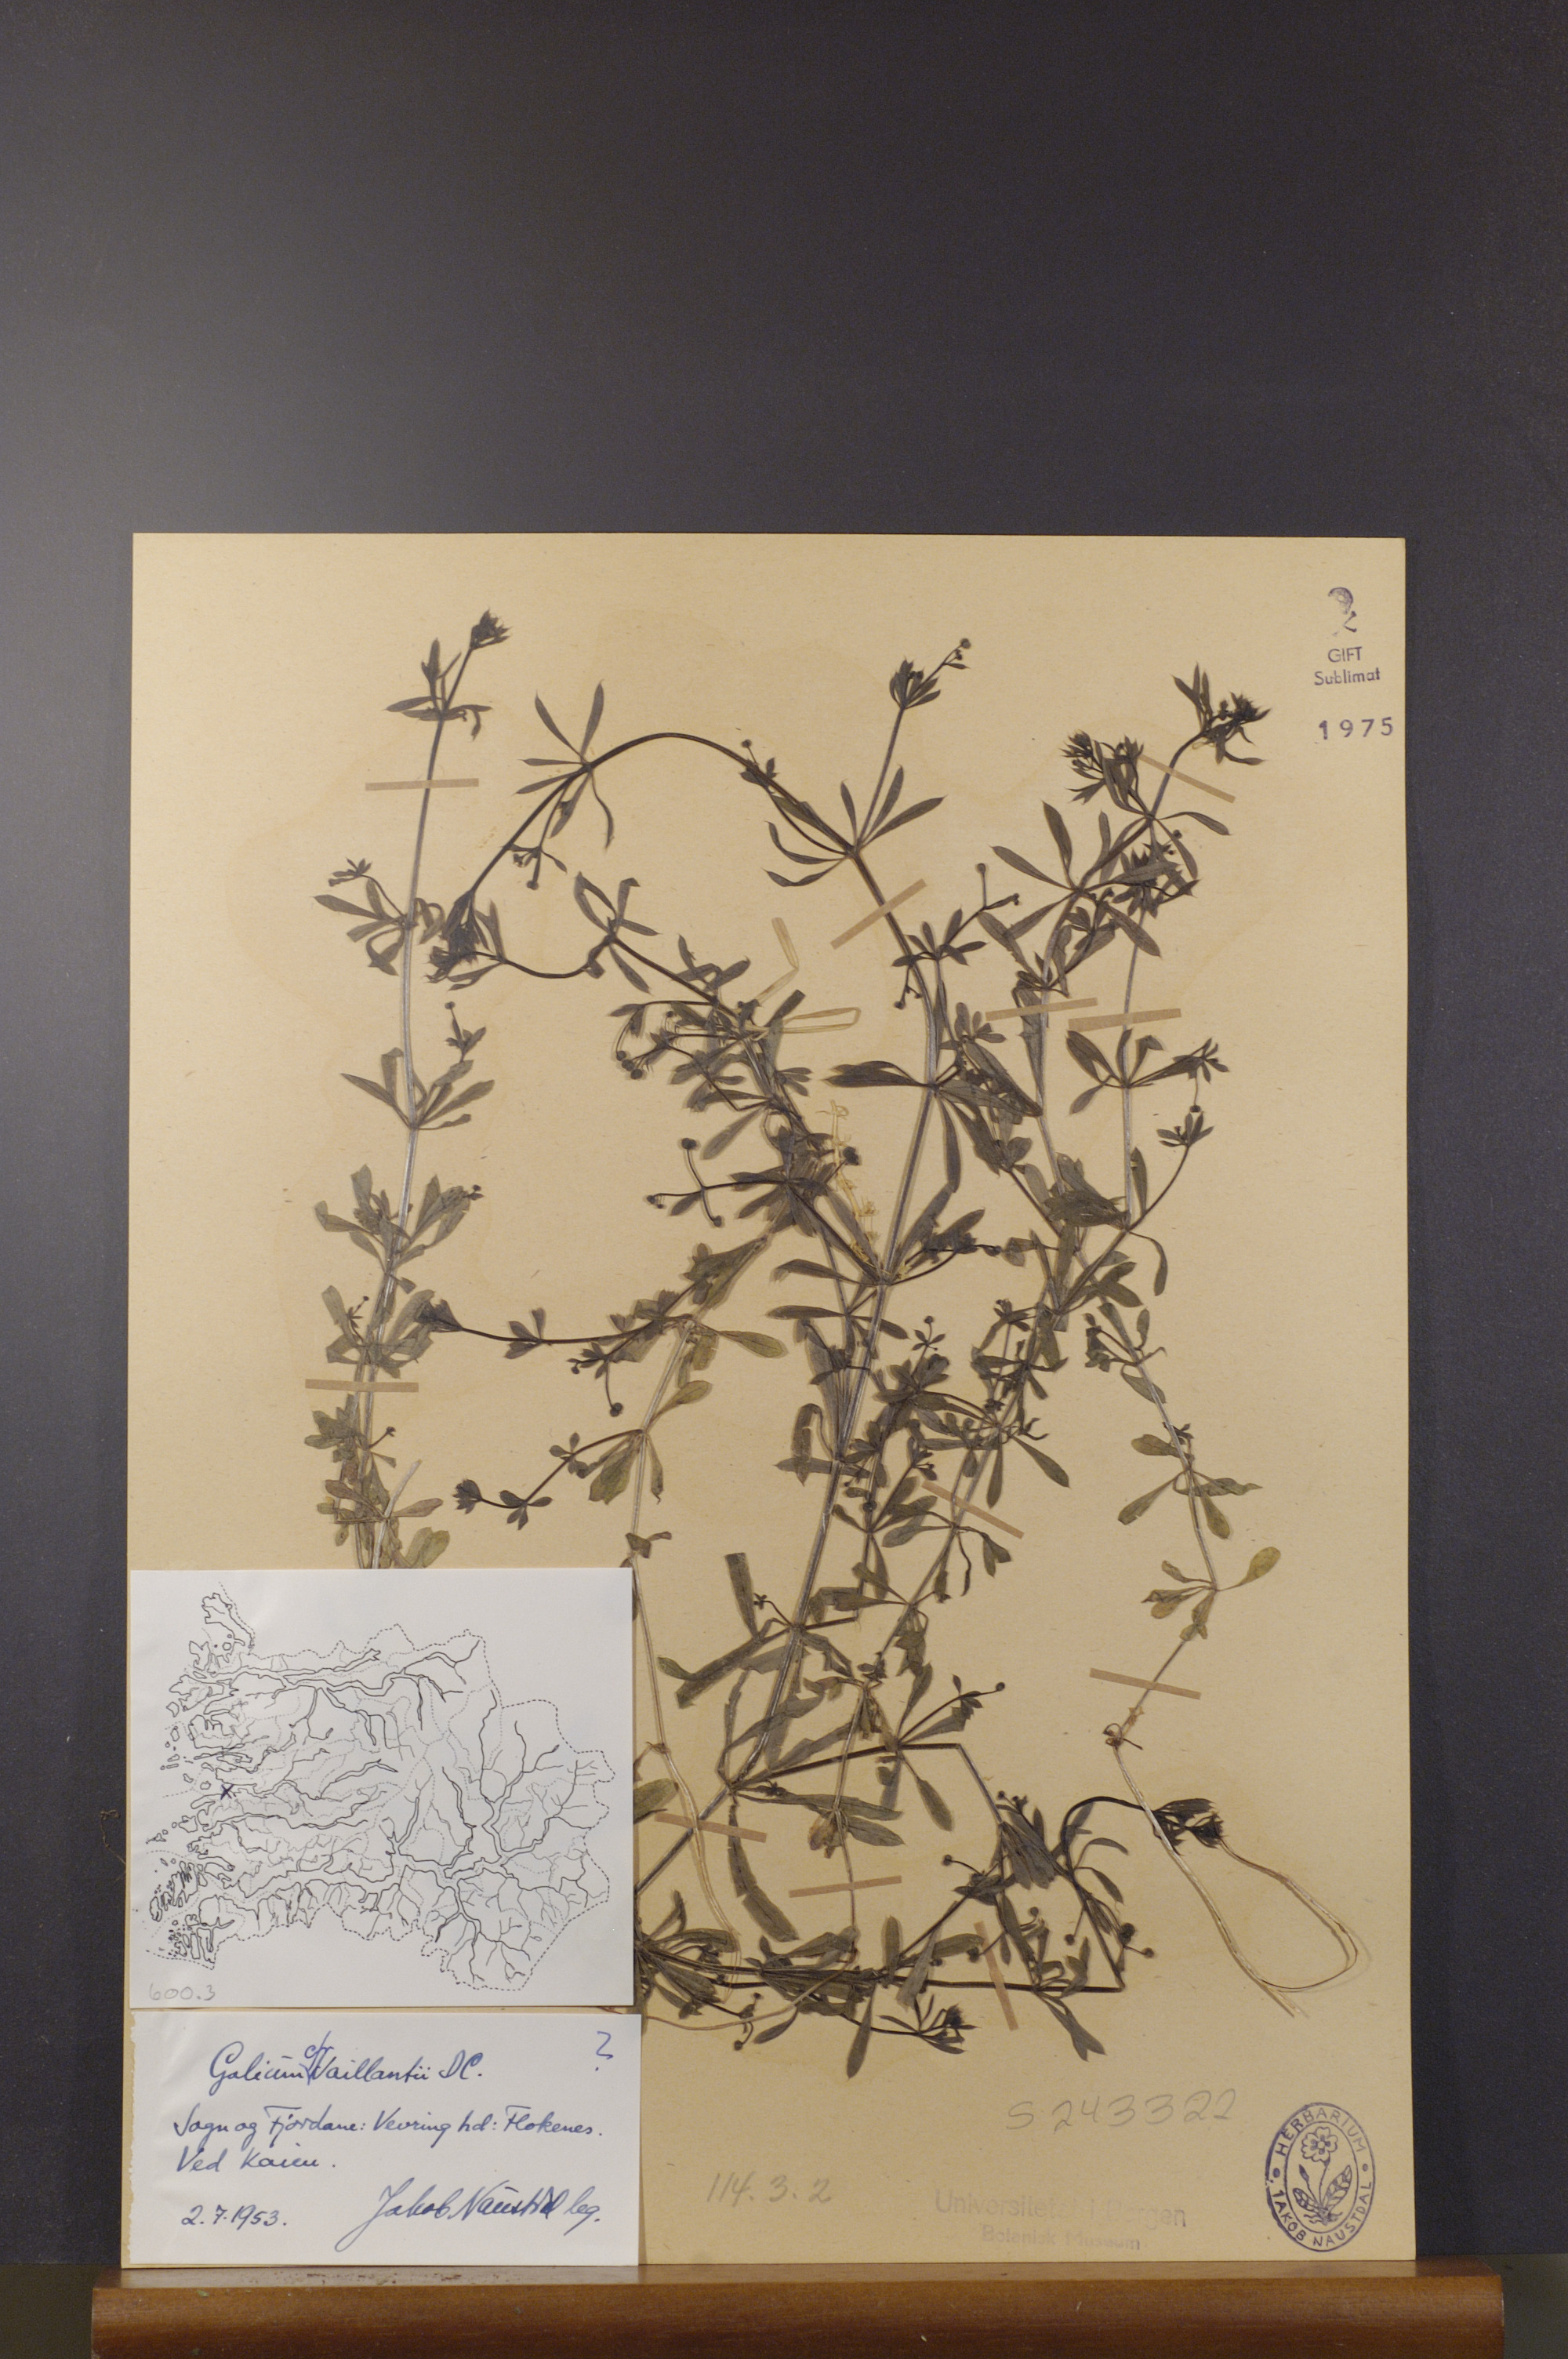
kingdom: Plantae
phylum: Tracheophyta
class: Magnoliopsida
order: Gentianales
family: Rubiaceae
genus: Galium
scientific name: Galium spurium
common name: False cleavers
